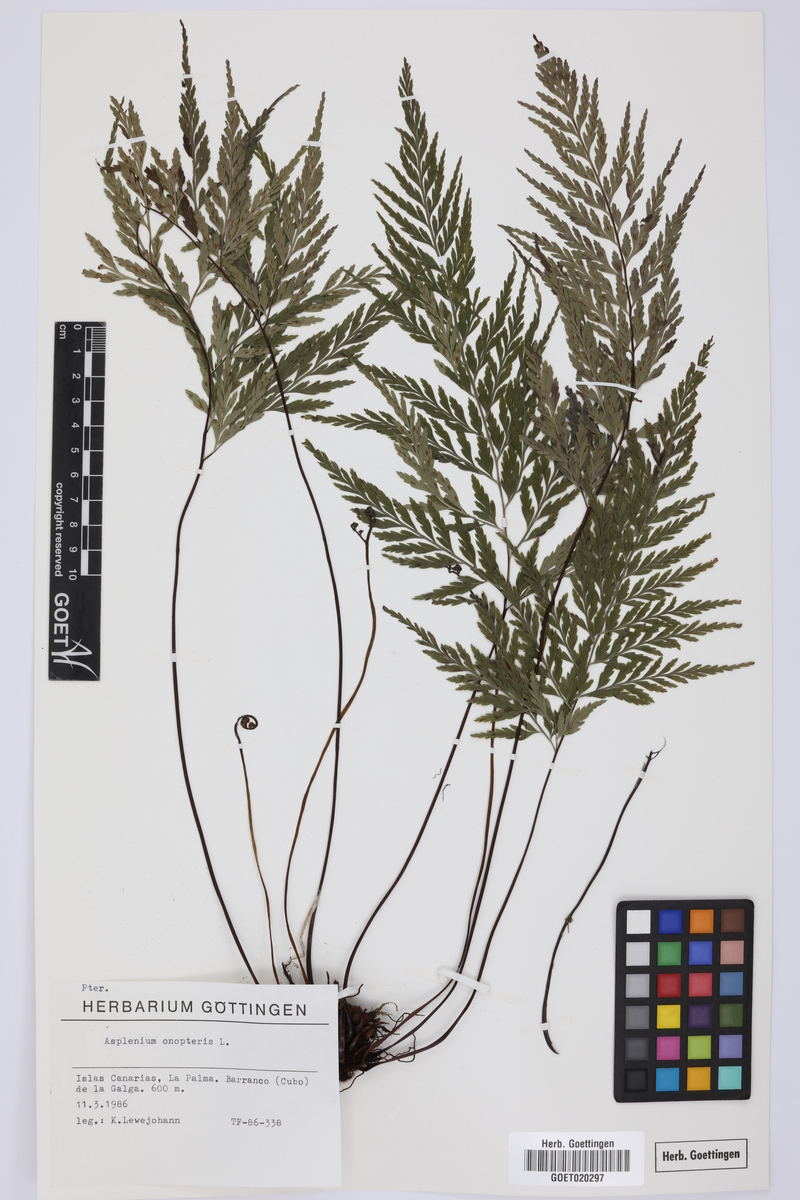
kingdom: Plantae
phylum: Tracheophyta
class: Polypodiopsida
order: Polypodiales
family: Aspleniaceae
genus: Asplenium
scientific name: Asplenium onopteris
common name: Irish spleenwort
